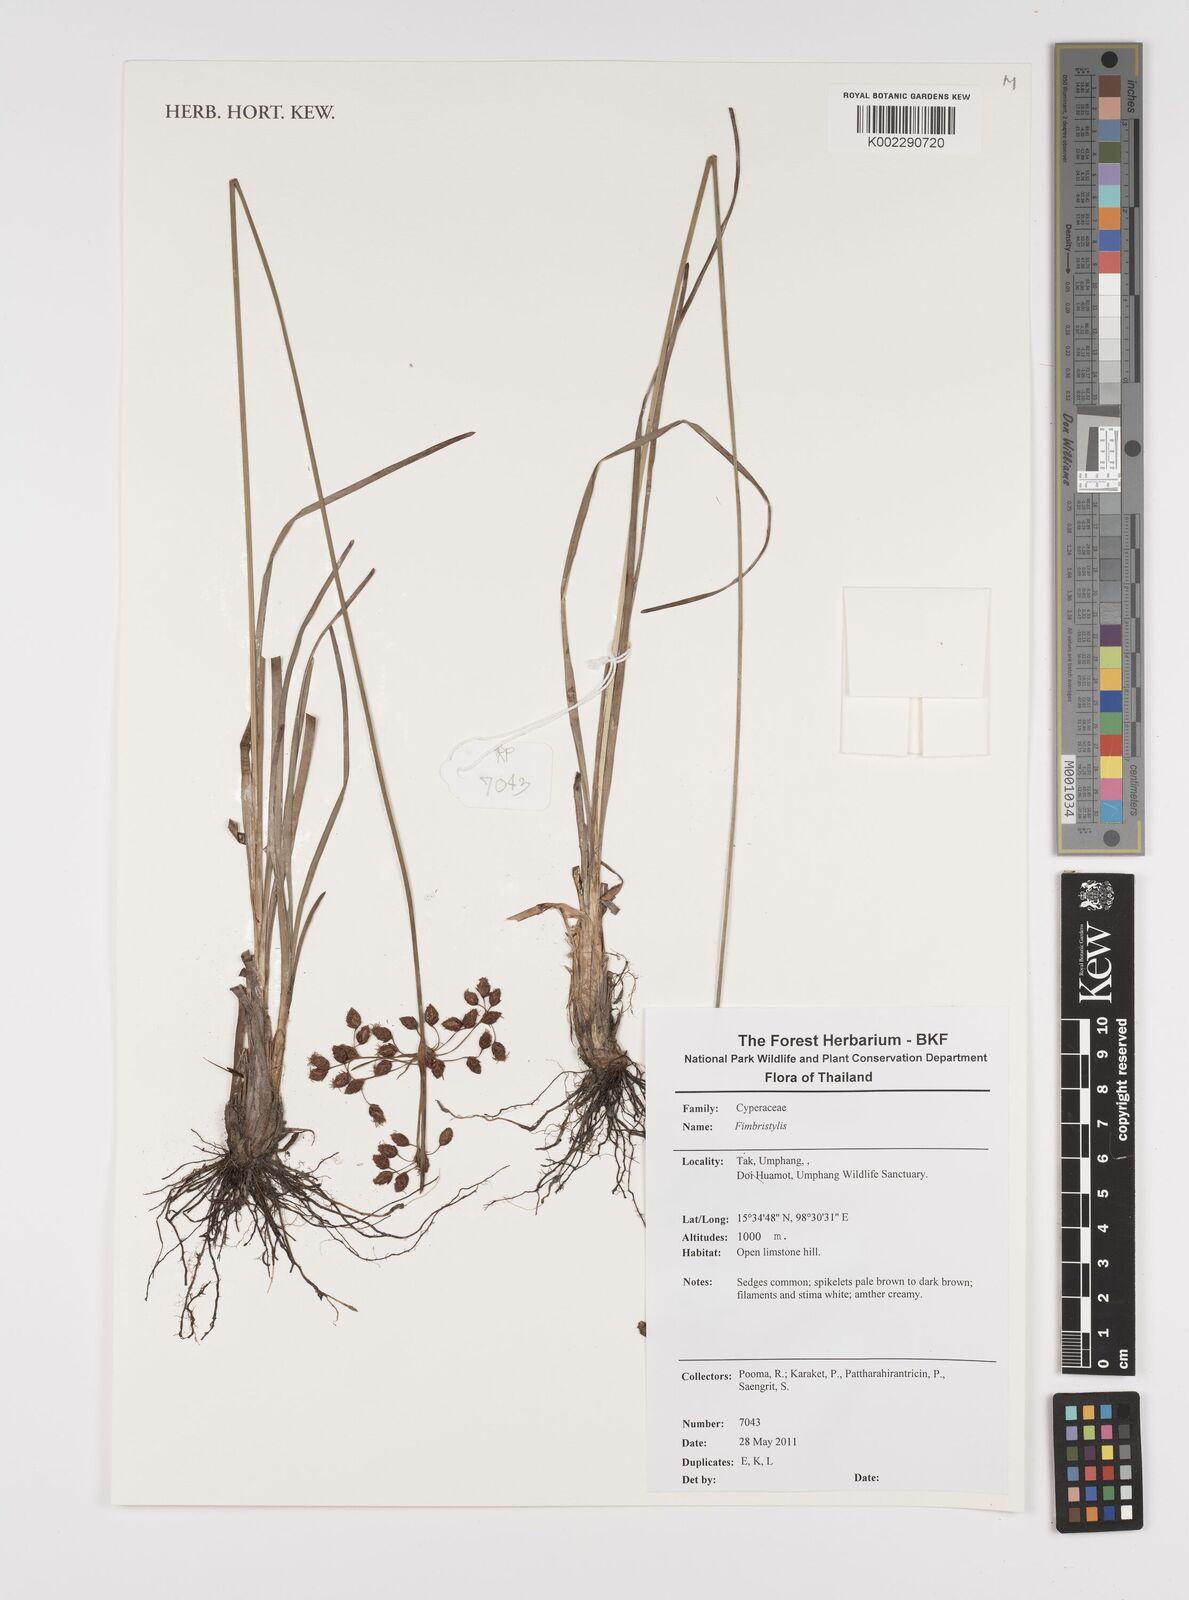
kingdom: Plantae
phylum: Tracheophyta
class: Liliopsida
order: Poales
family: Cyperaceae
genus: Fimbristylis
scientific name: Fimbristylis
